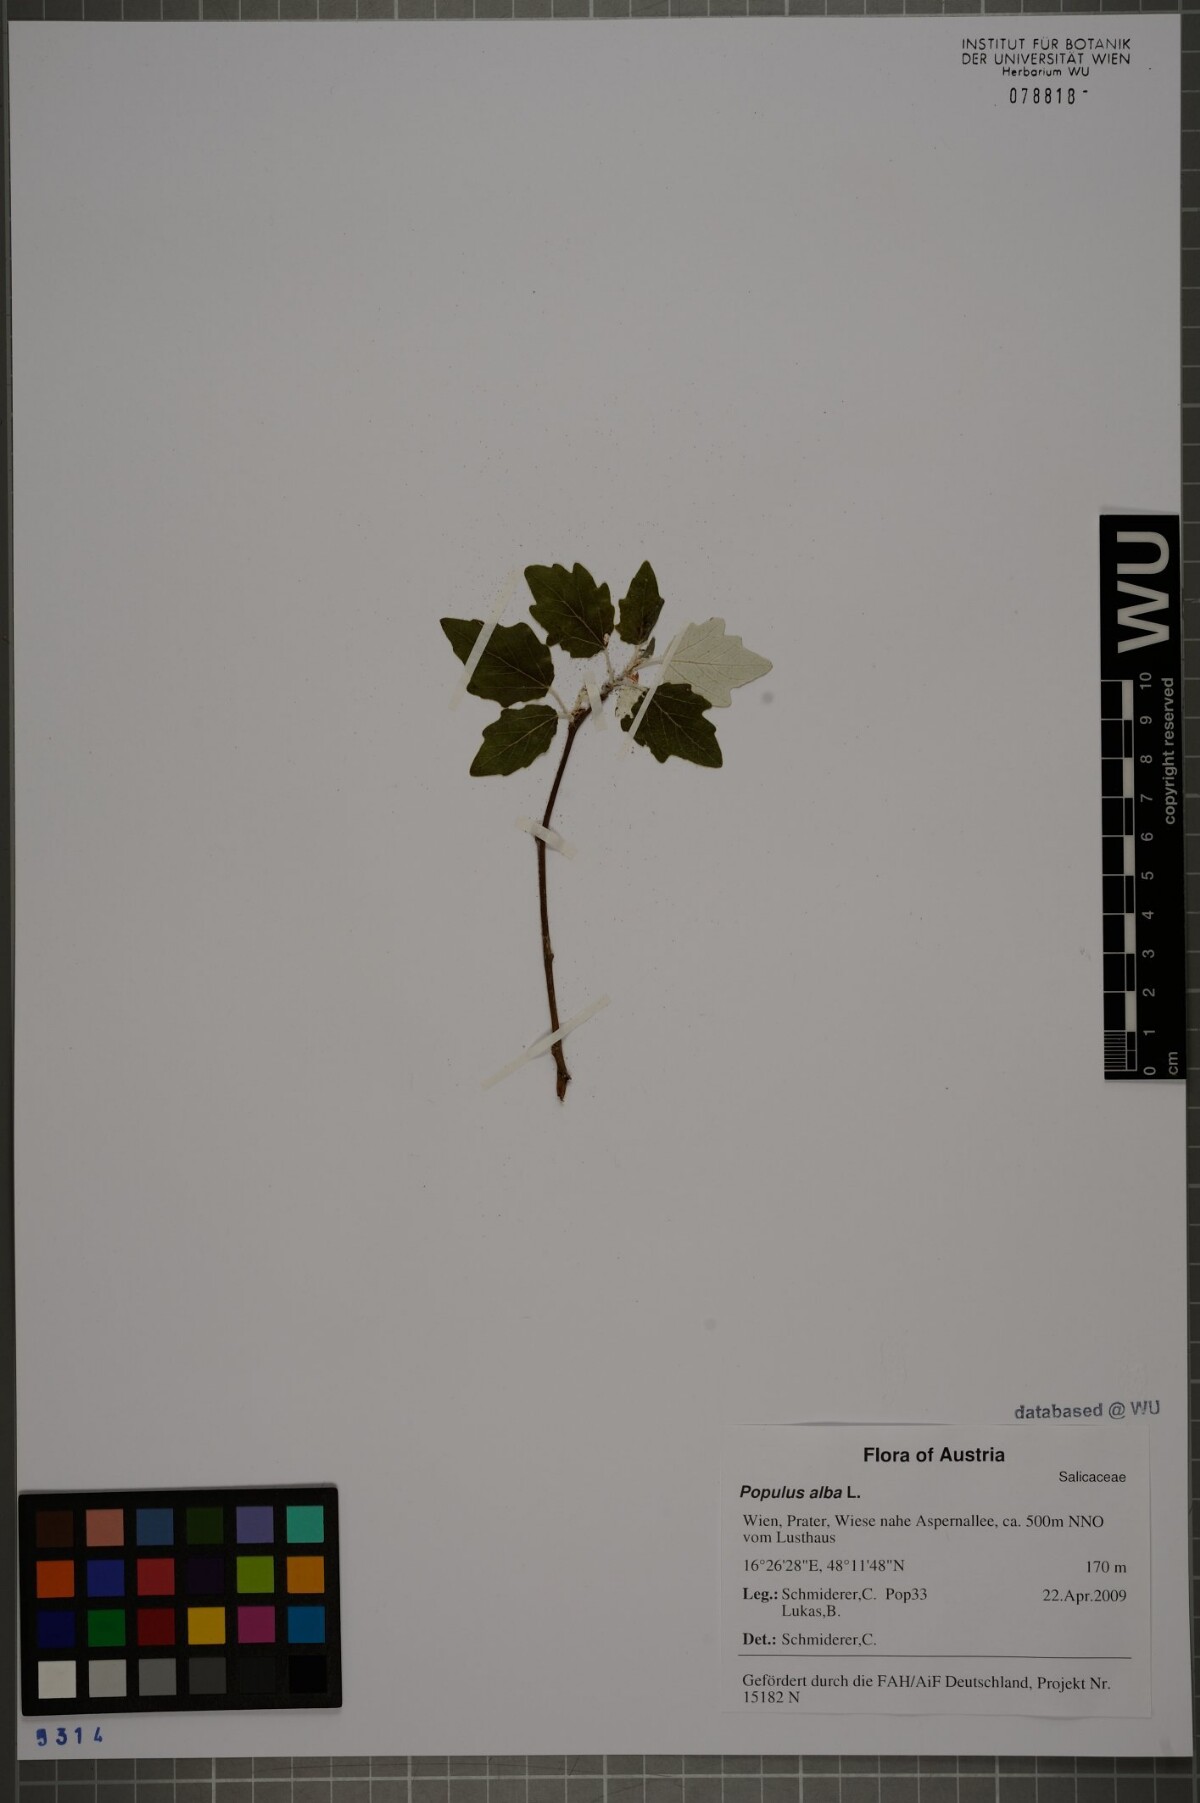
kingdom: Plantae
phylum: Tracheophyta
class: Magnoliopsida
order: Malpighiales
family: Salicaceae
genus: Populus
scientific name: Populus alba
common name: White poplar
